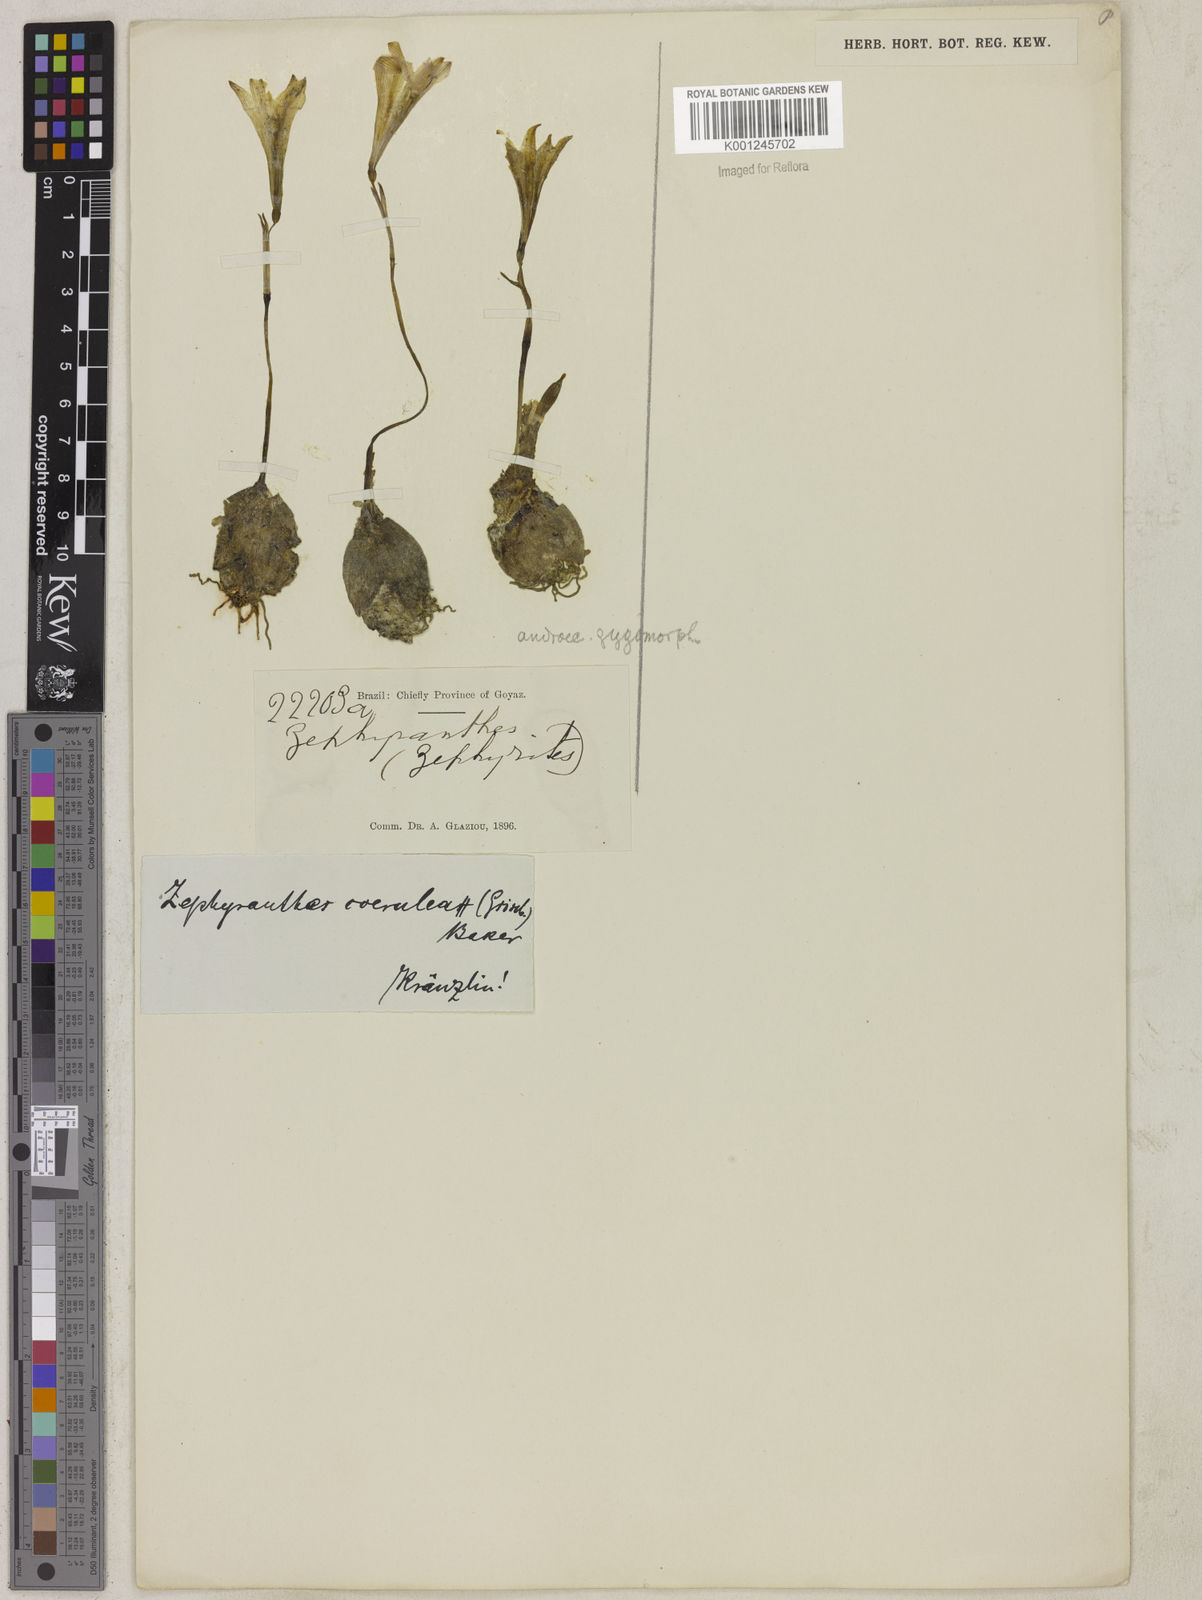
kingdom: Plantae
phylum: Tracheophyta
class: Liliopsida
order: Asparagales
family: Amaryllidaceae
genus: Zephyranthes
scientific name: Zephyranthes caerulea
